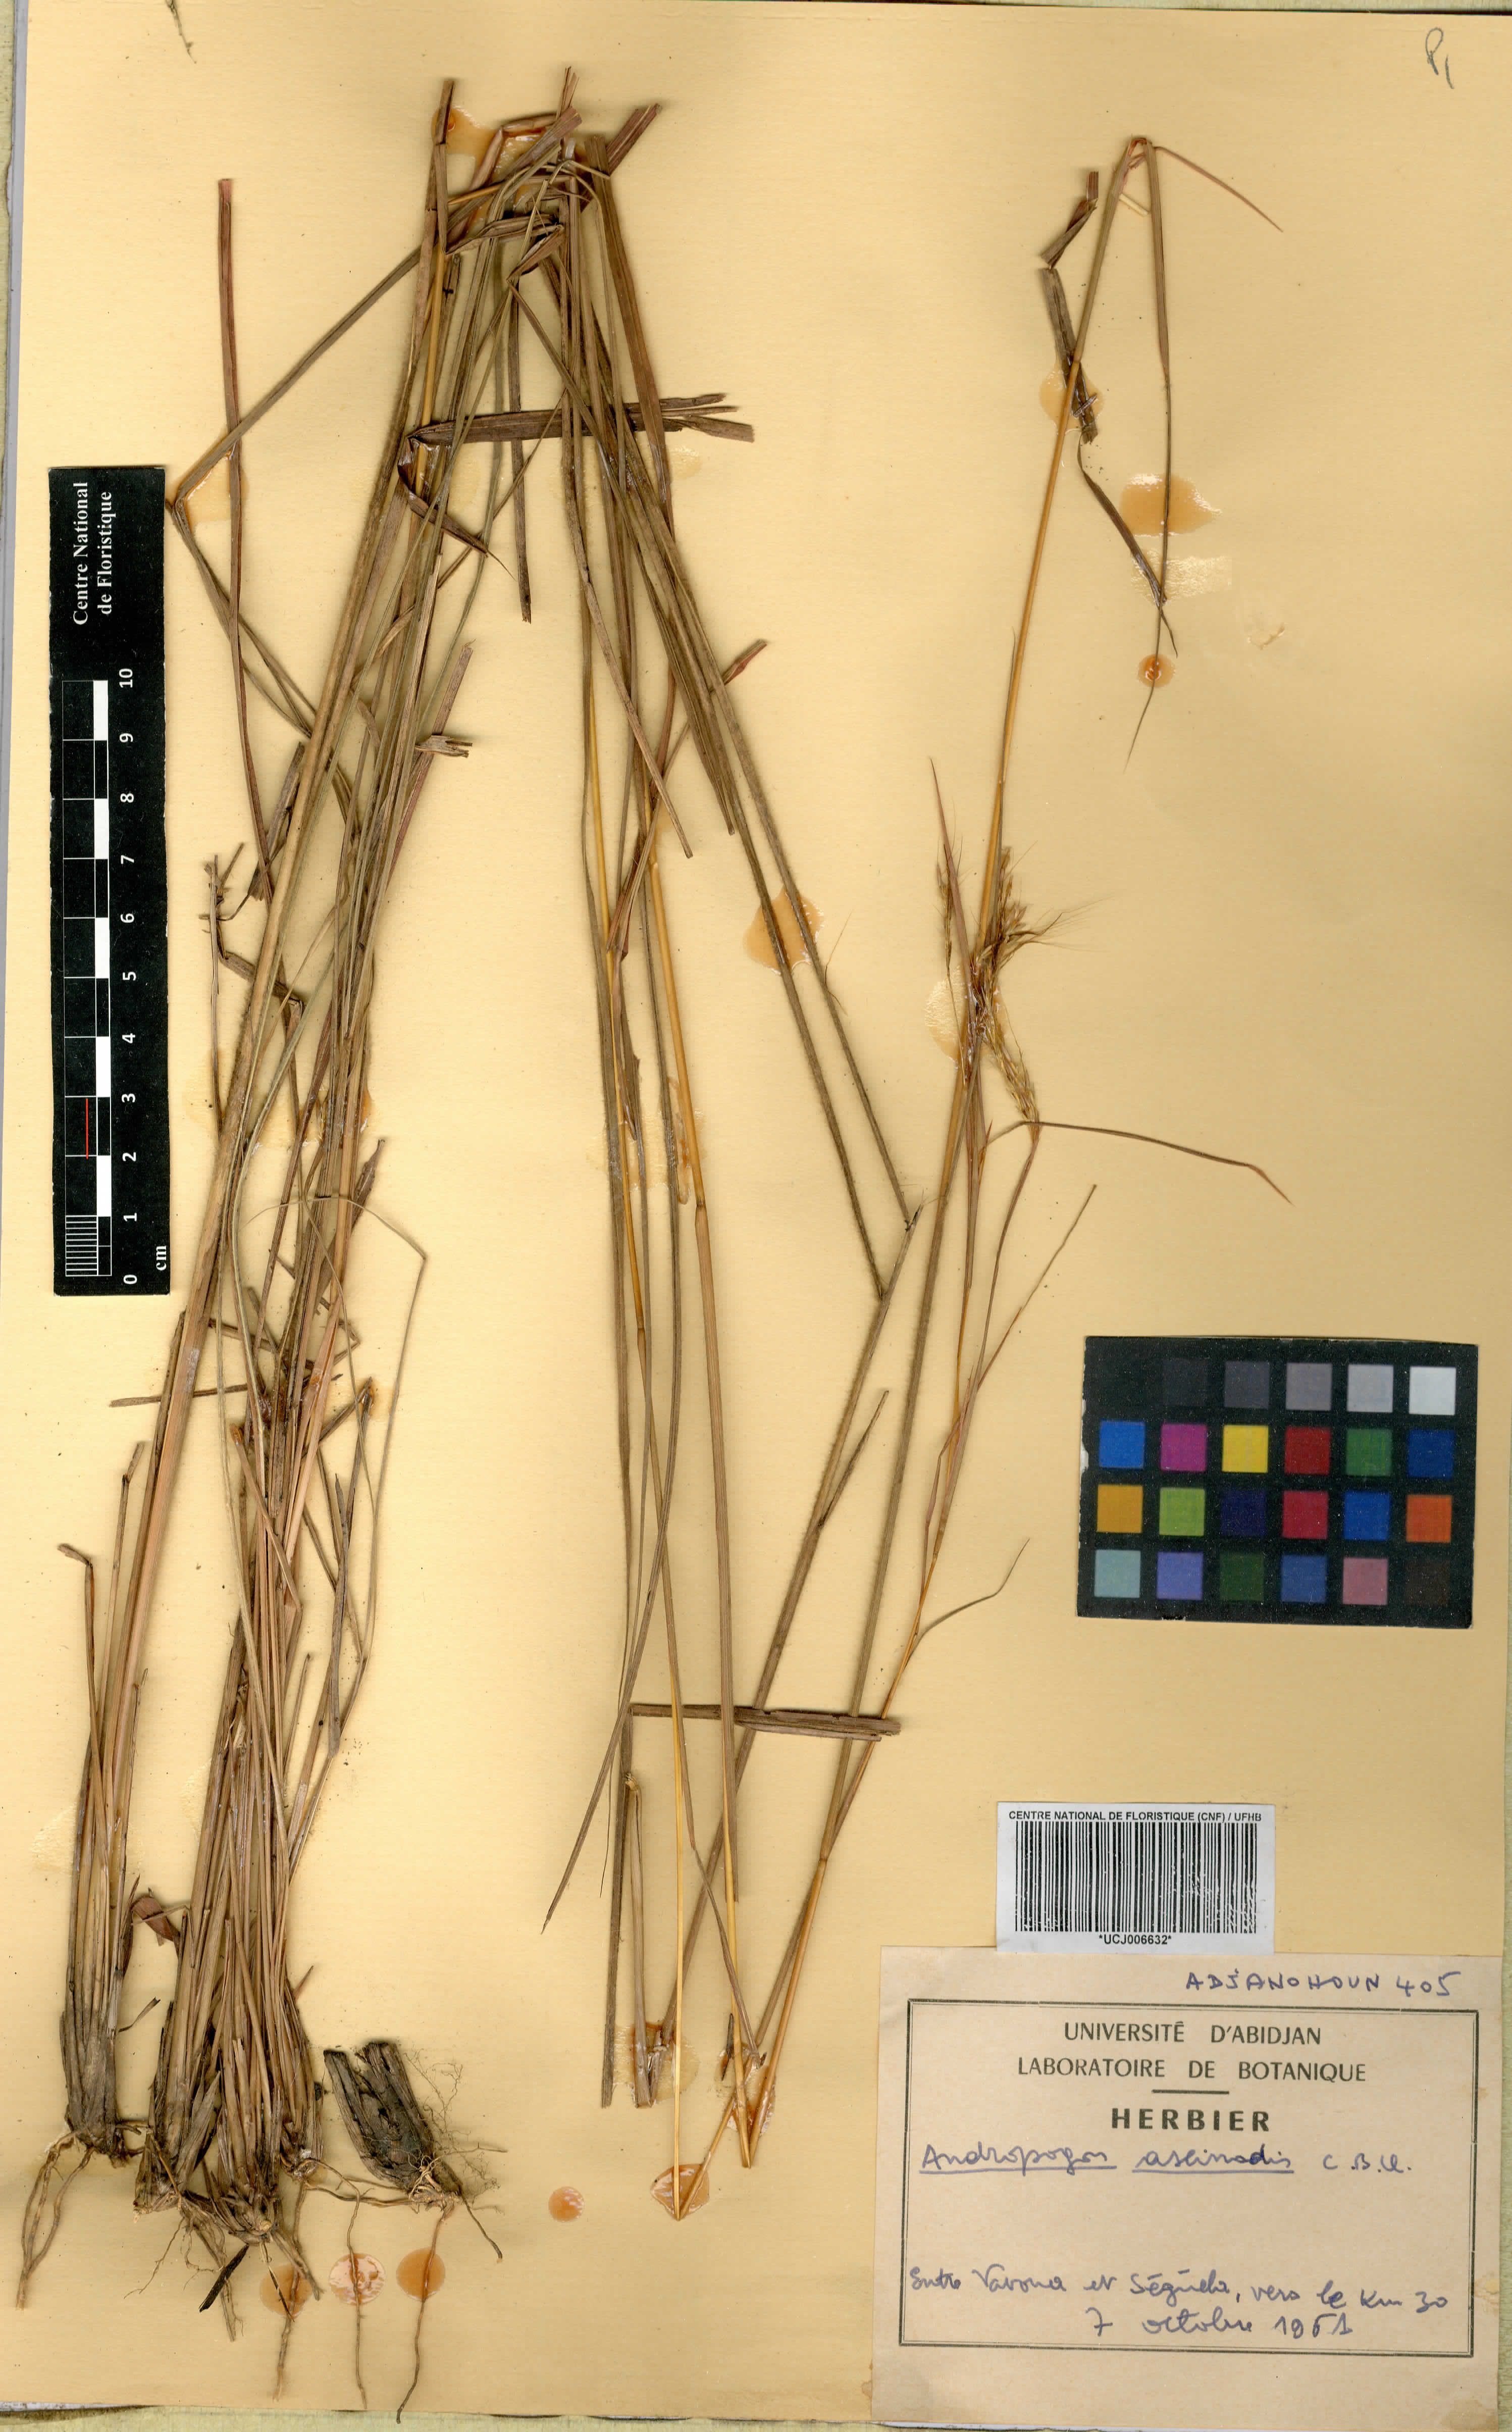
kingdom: Plantae
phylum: Tracheophyta
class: Liliopsida
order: Poales
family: Poaceae
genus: Andropogon
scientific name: Andropogon chinensis
